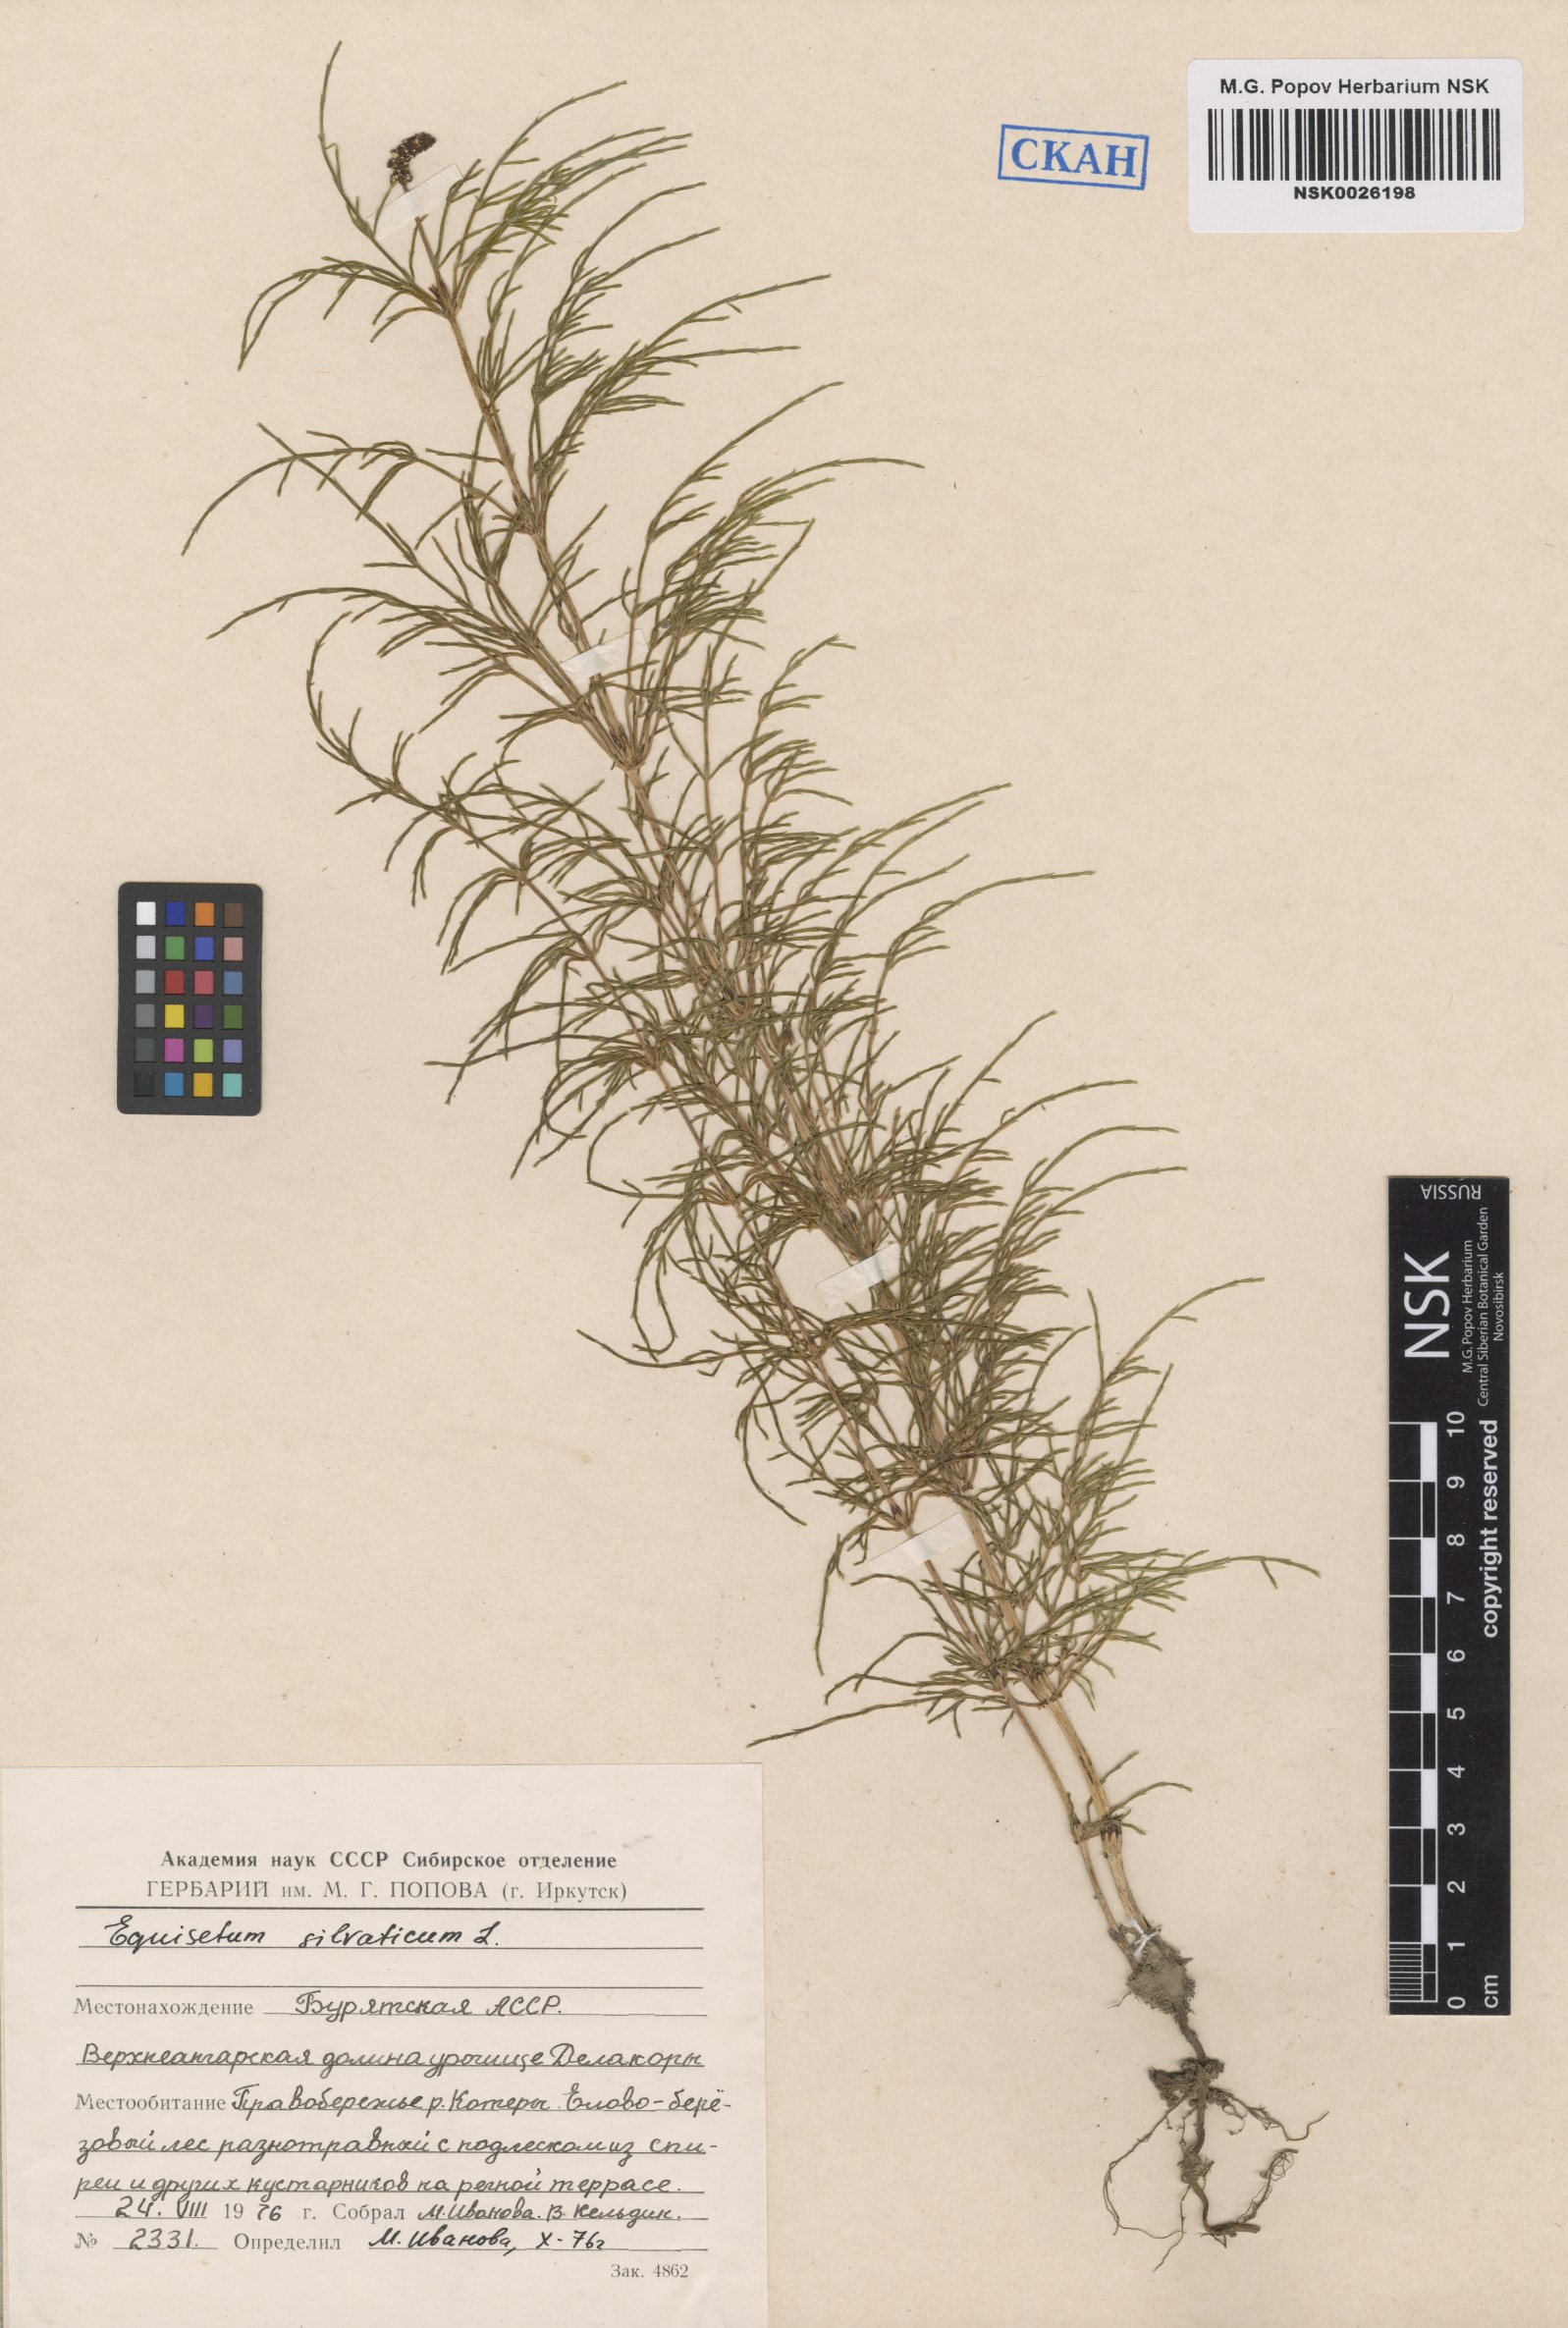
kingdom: Plantae
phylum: Tracheophyta
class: Polypodiopsida
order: Equisetales
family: Equisetaceae
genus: Equisetum
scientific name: Equisetum sylvaticum
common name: Wood horsetail
